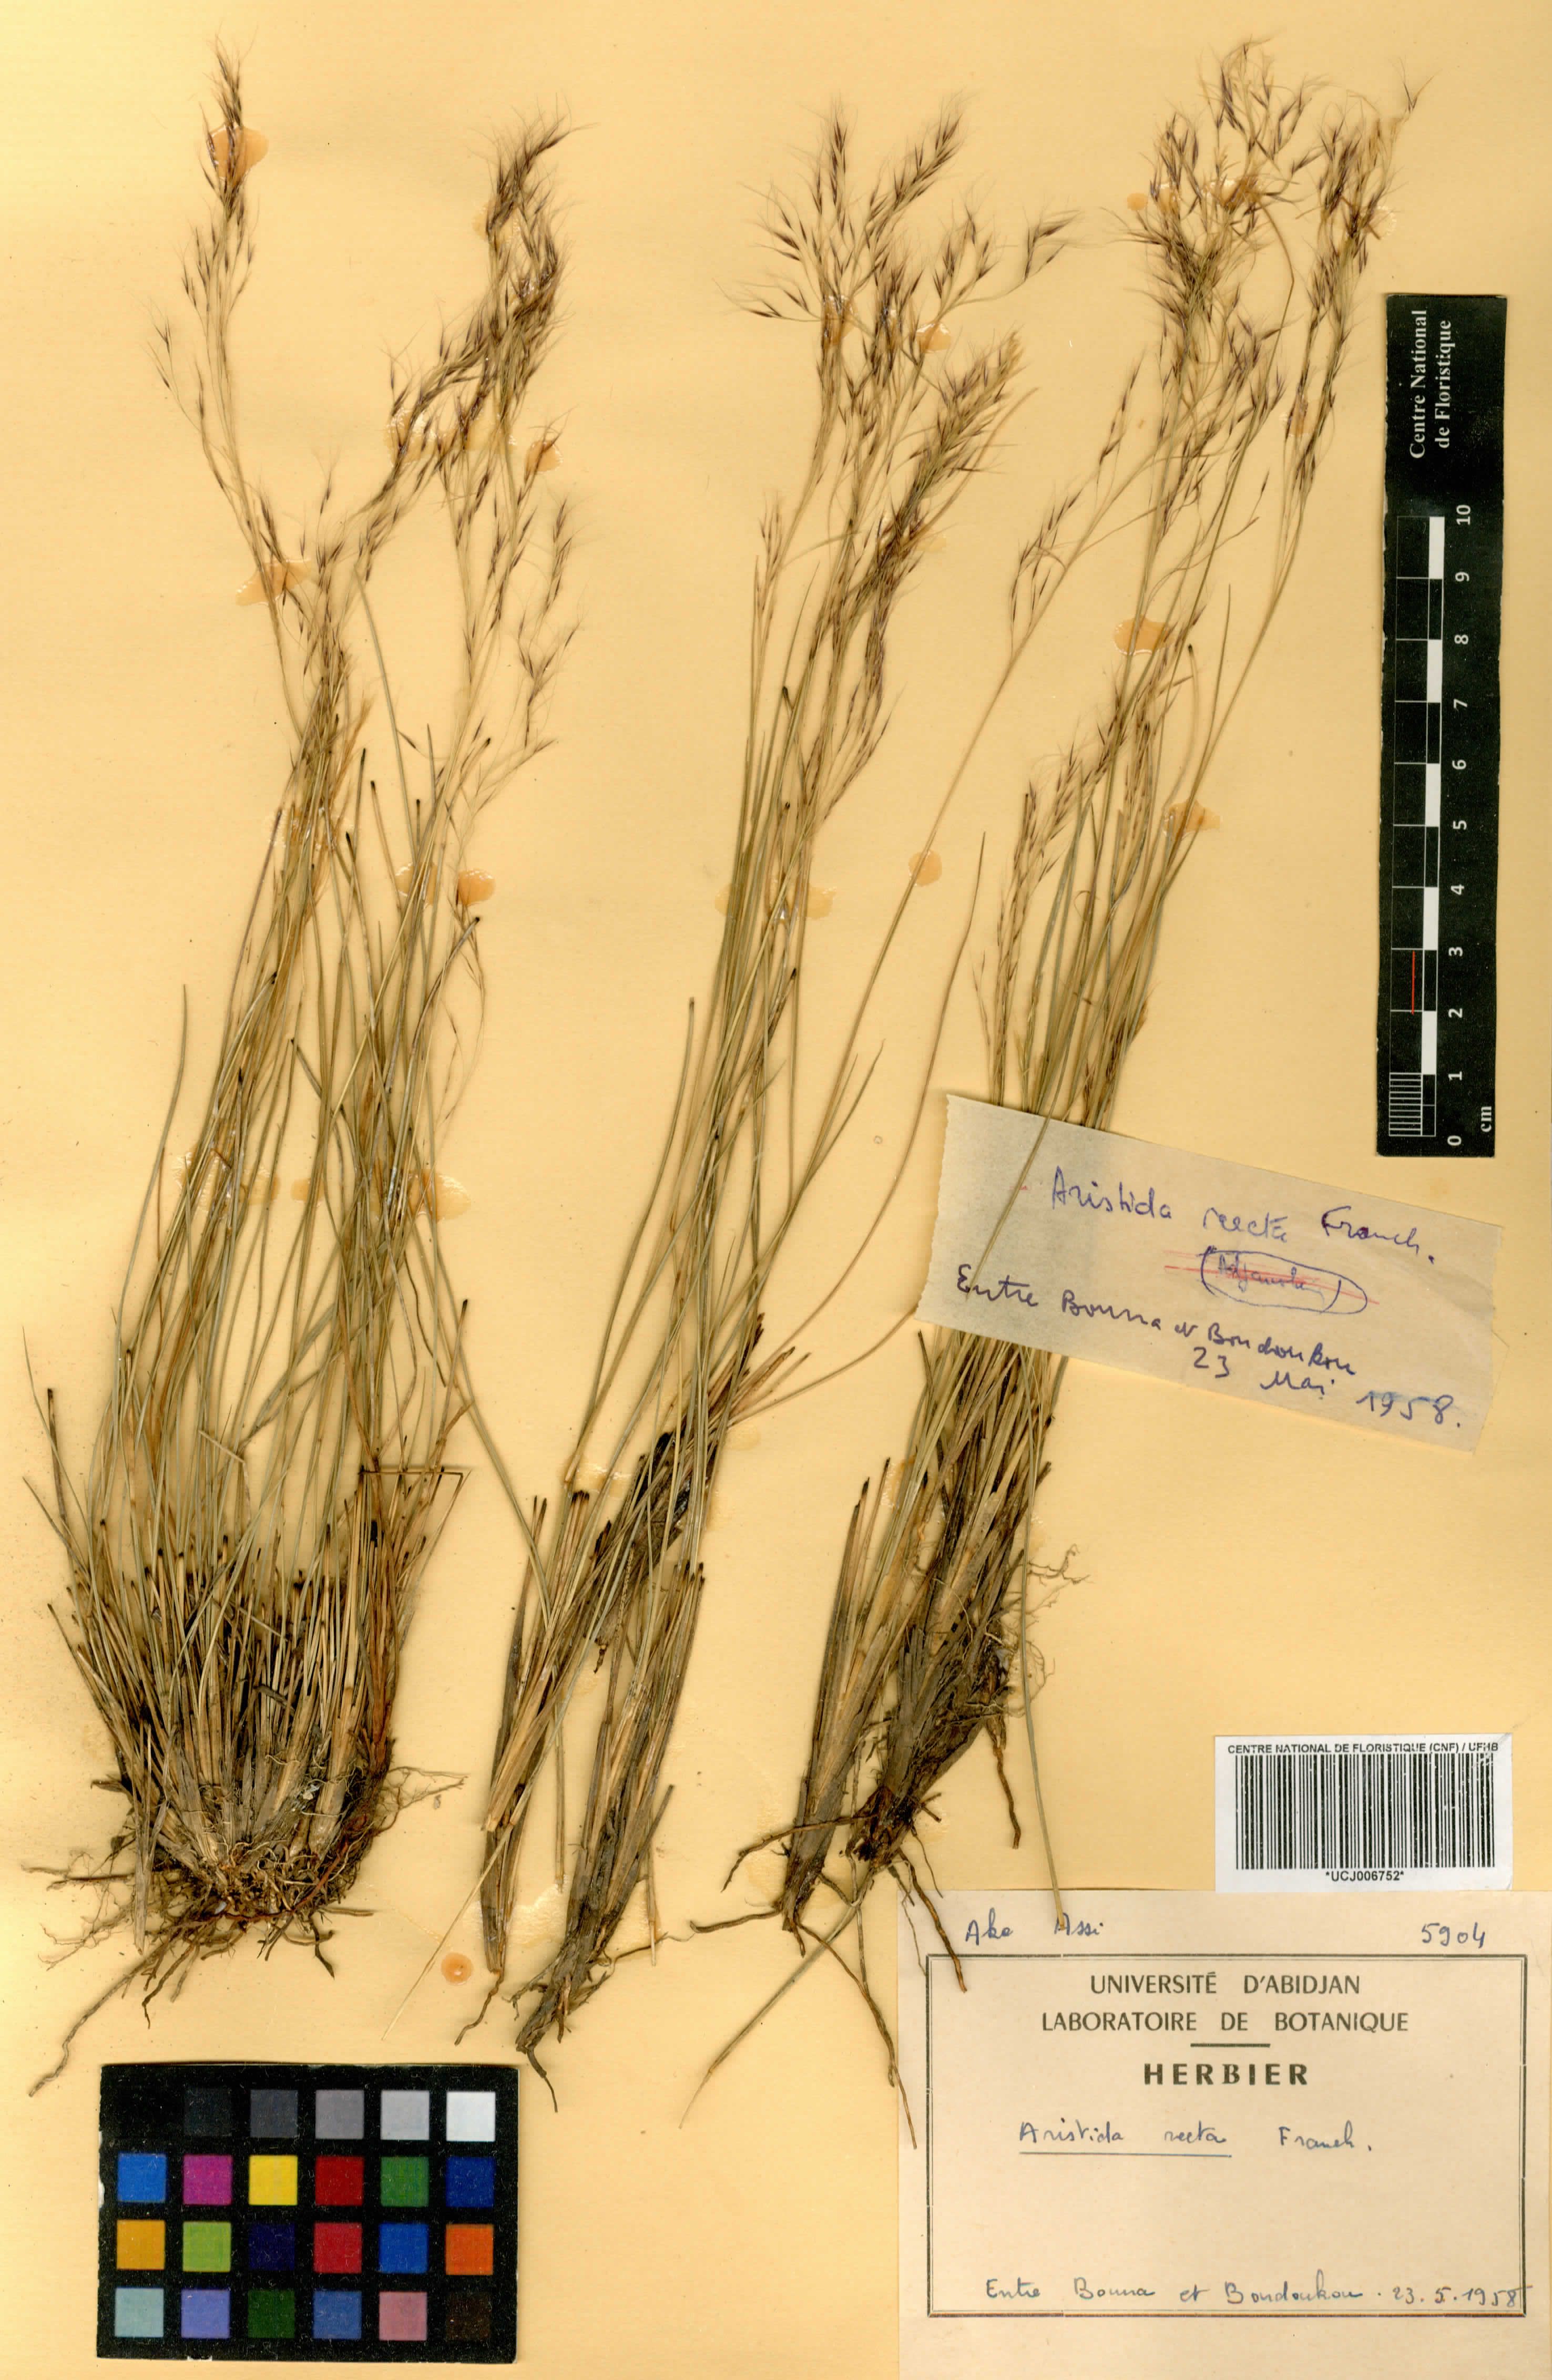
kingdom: Plantae
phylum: Tracheophyta
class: Liliopsida
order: Poales
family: Poaceae
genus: Aristida
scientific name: Aristida recta
